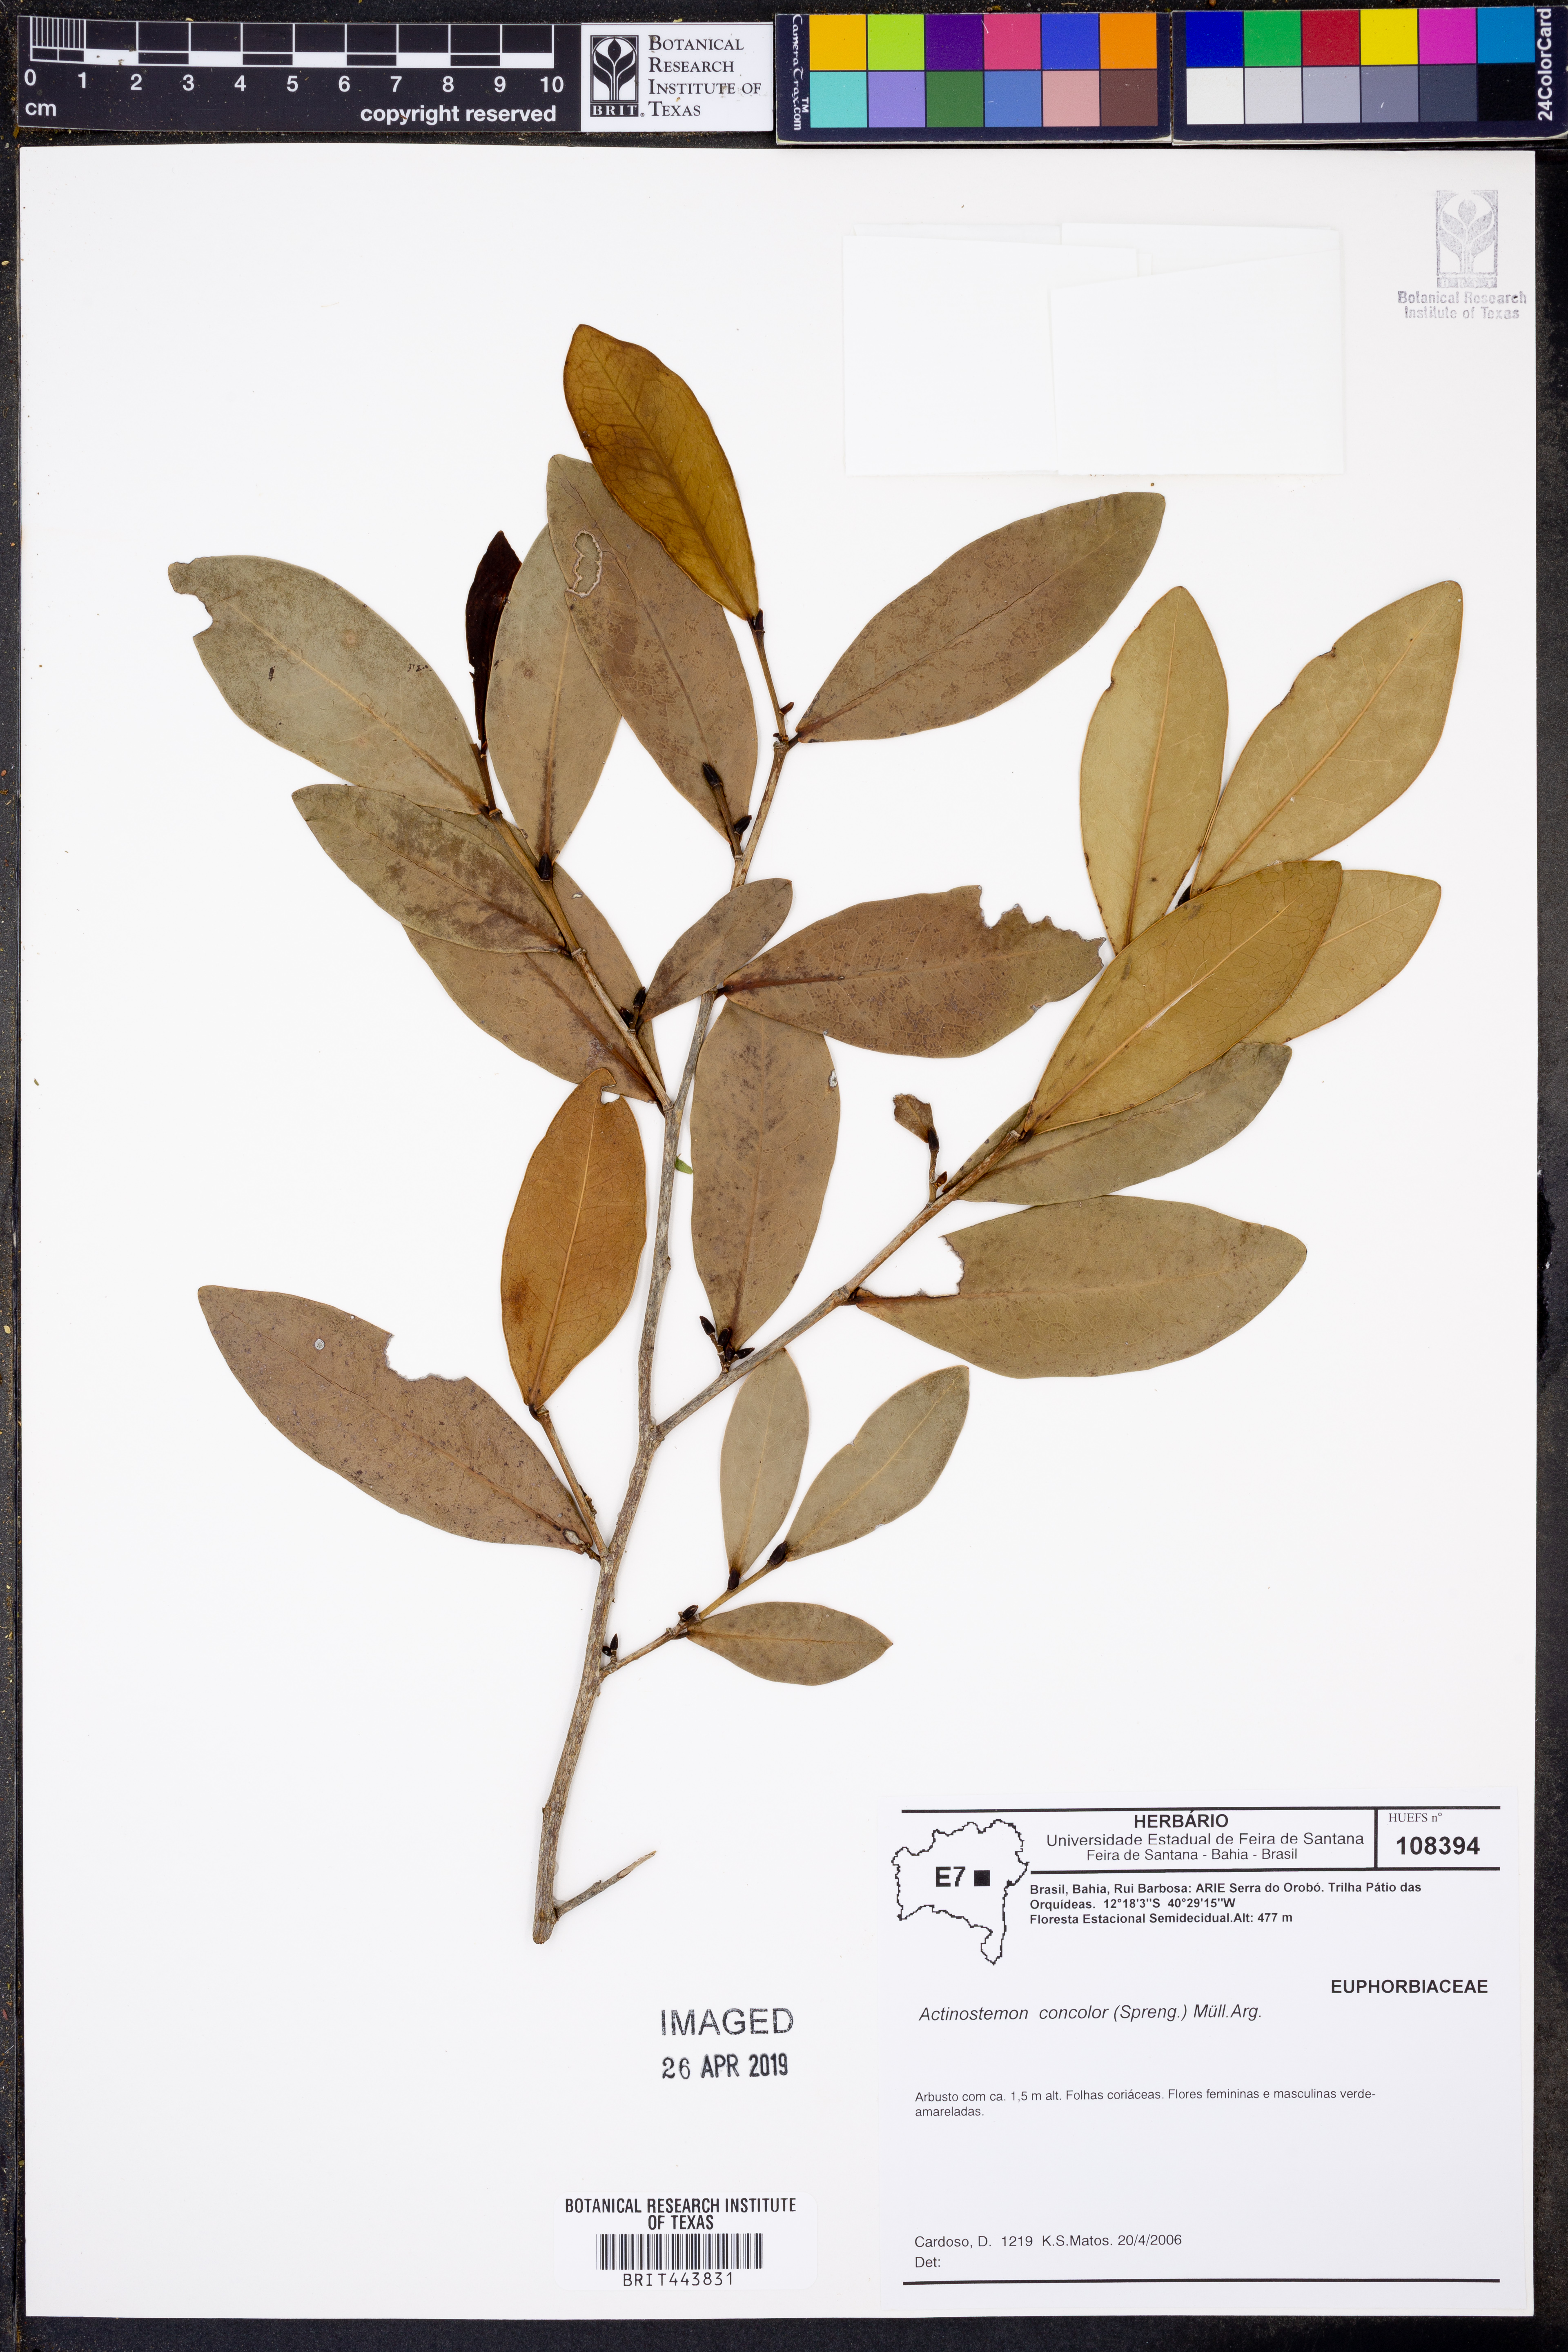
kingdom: Plantae
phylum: Tracheophyta
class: Magnoliopsida
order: Malpighiales
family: Euphorbiaceae
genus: Actinostemon
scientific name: Actinostemon concolor
